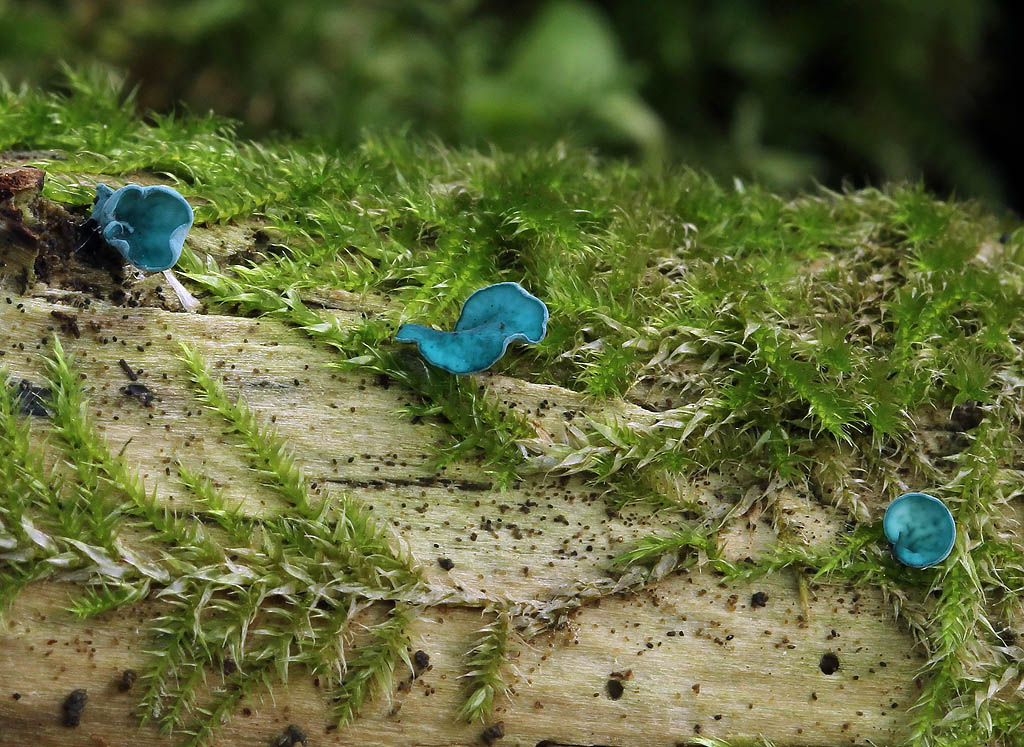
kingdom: Fungi
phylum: Ascomycota
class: Leotiomycetes
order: Helotiales
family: Chlorociboriaceae
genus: Chlorociboria
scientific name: Chlorociboria aeruginascens
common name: almindelig grønskive
